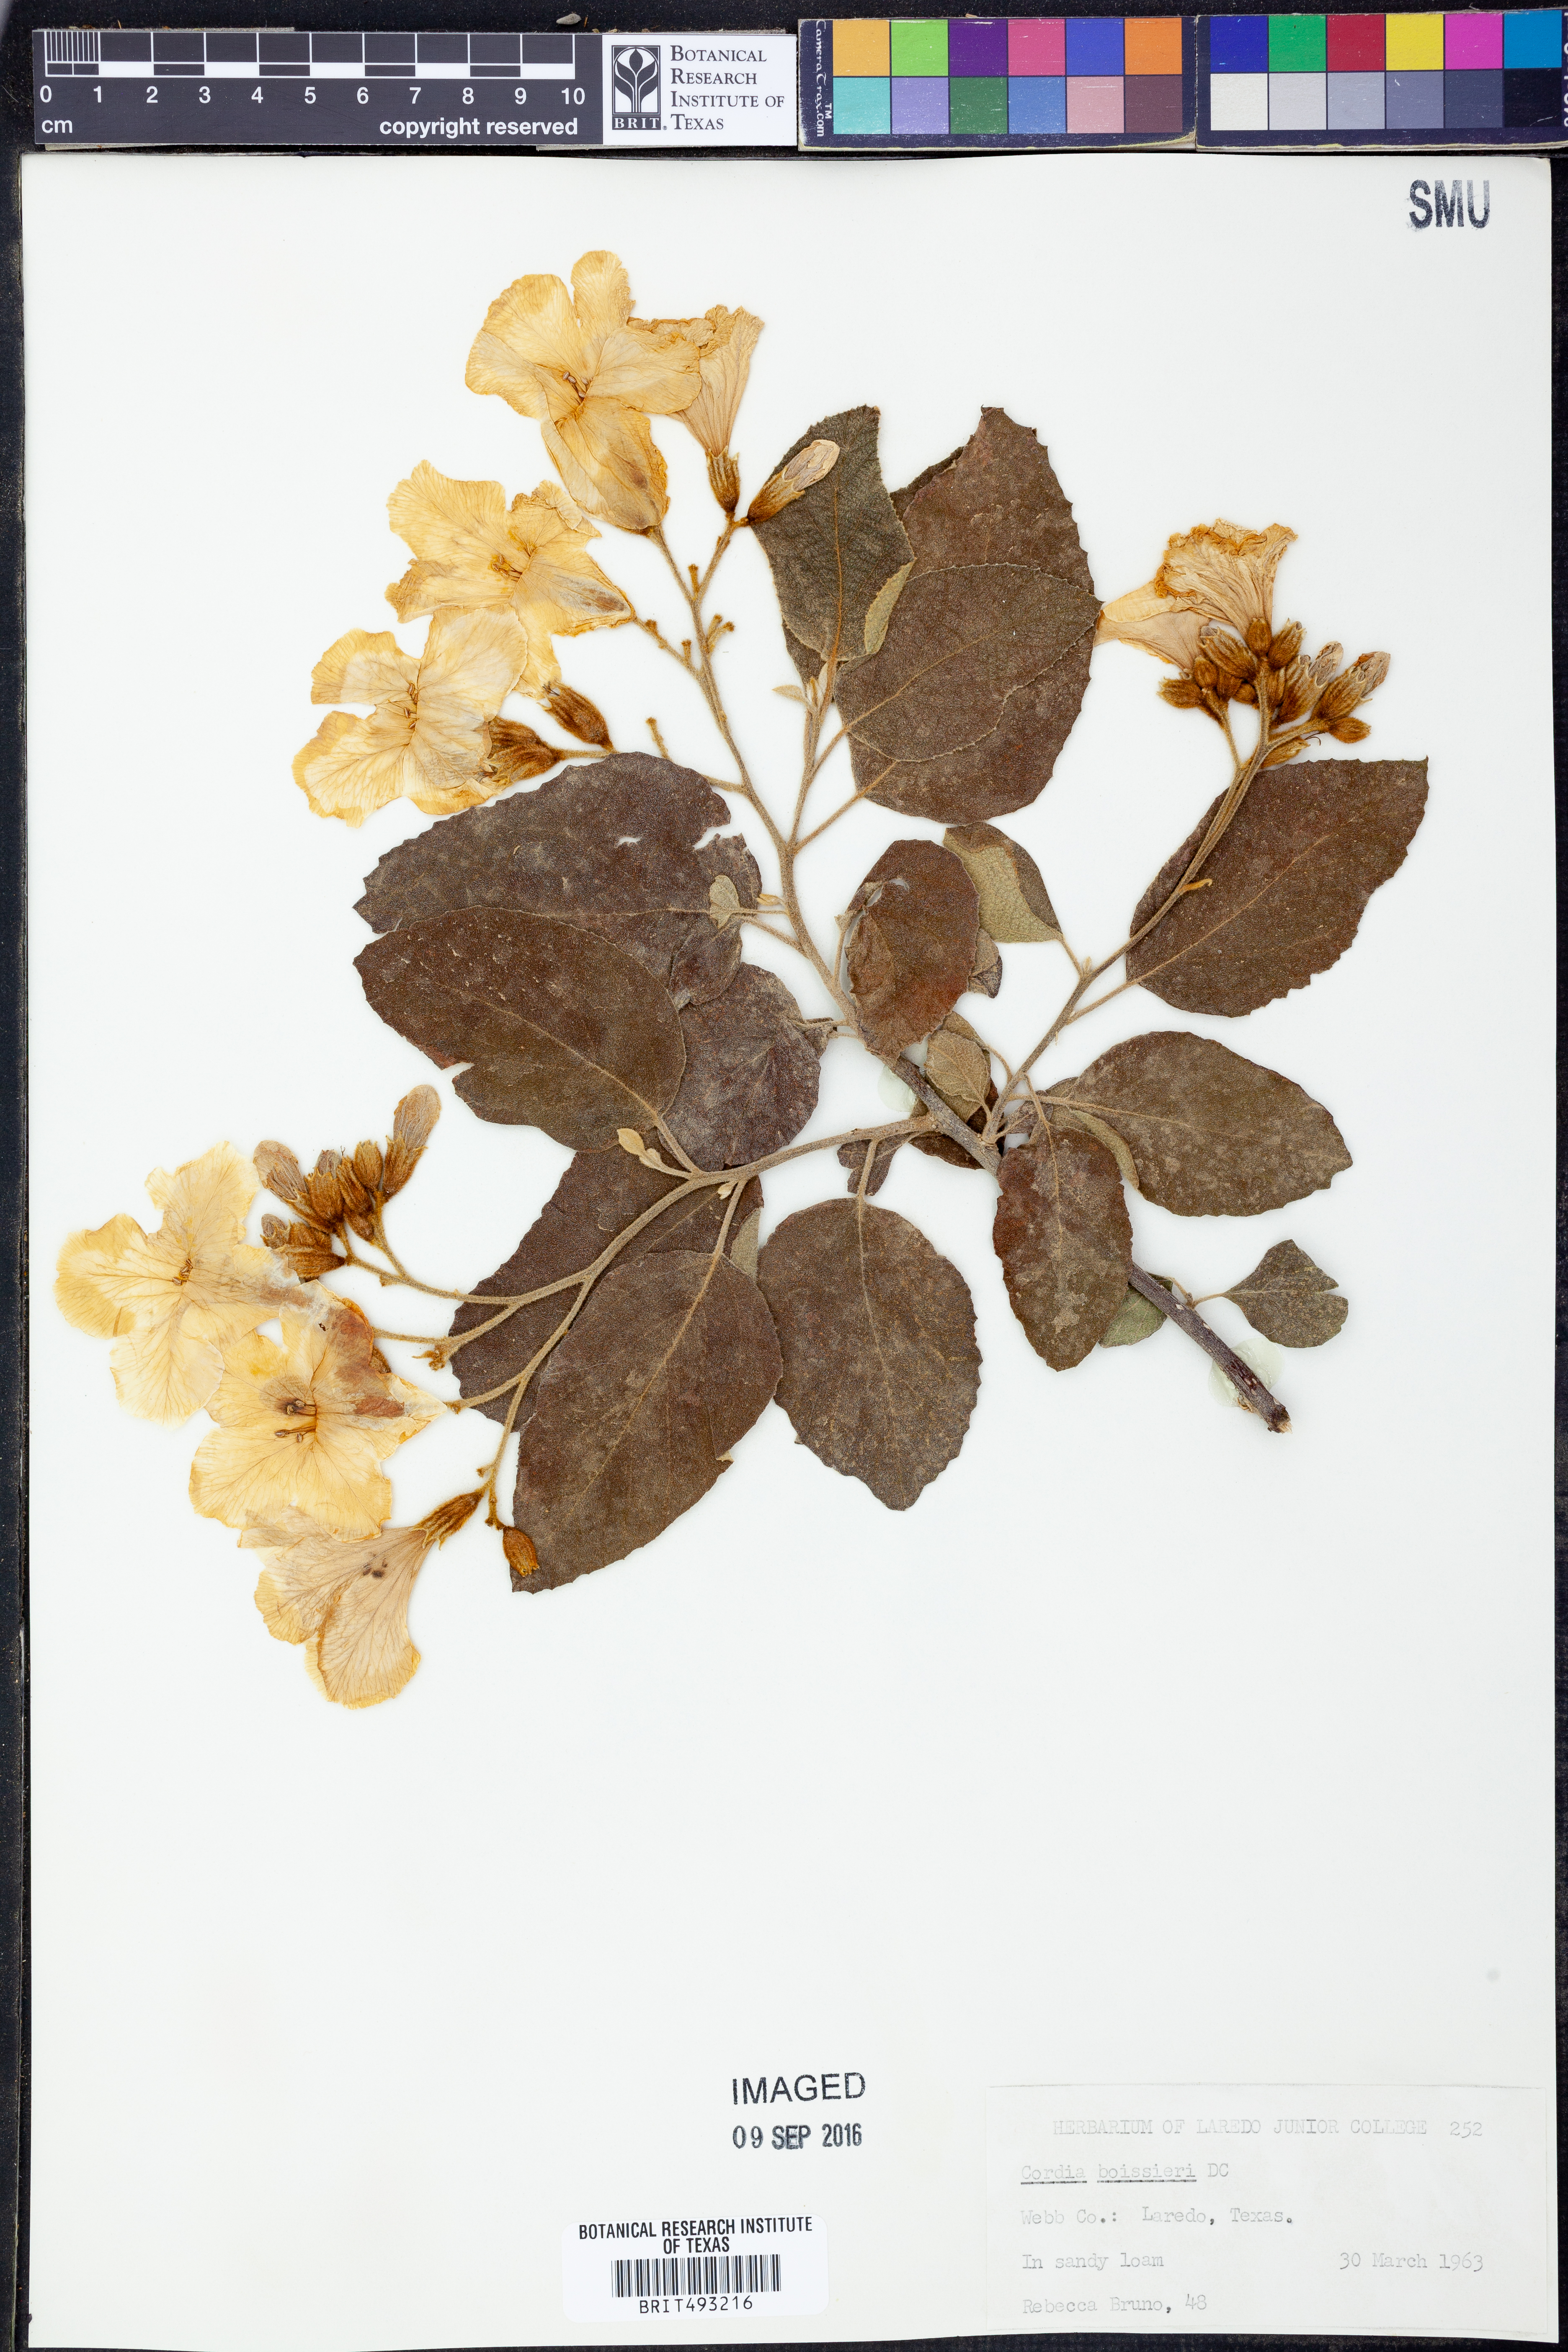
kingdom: Plantae
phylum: Tracheophyta
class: Magnoliopsida
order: Boraginales
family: Cordiaceae
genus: Cordia
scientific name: Cordia boissieri
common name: Mexican-olive
